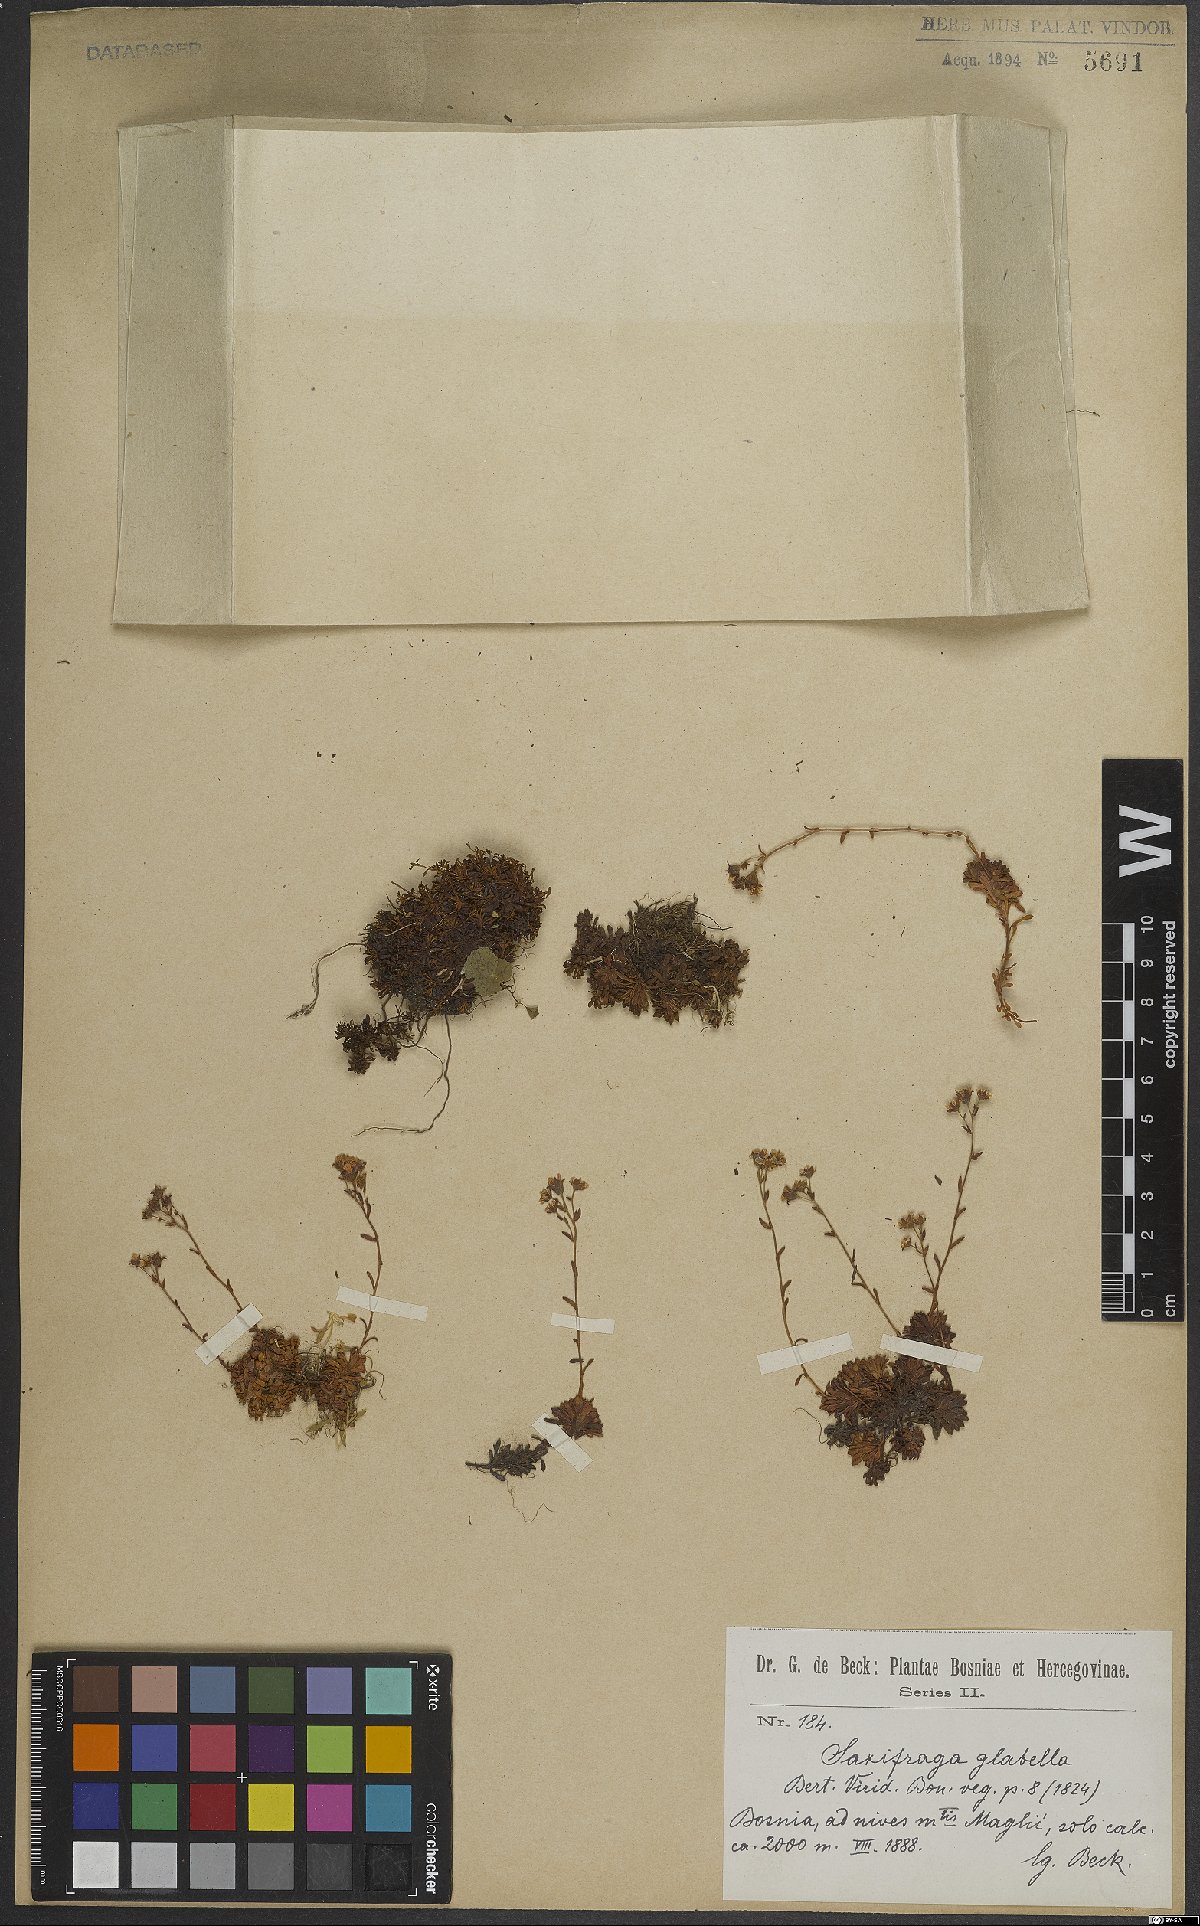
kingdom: Plantae
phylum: Tracheophyta
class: Magnoliopsida
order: Saxifragales
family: Saxifragaceae
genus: Saxifraga
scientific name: Saxifraga glabella
